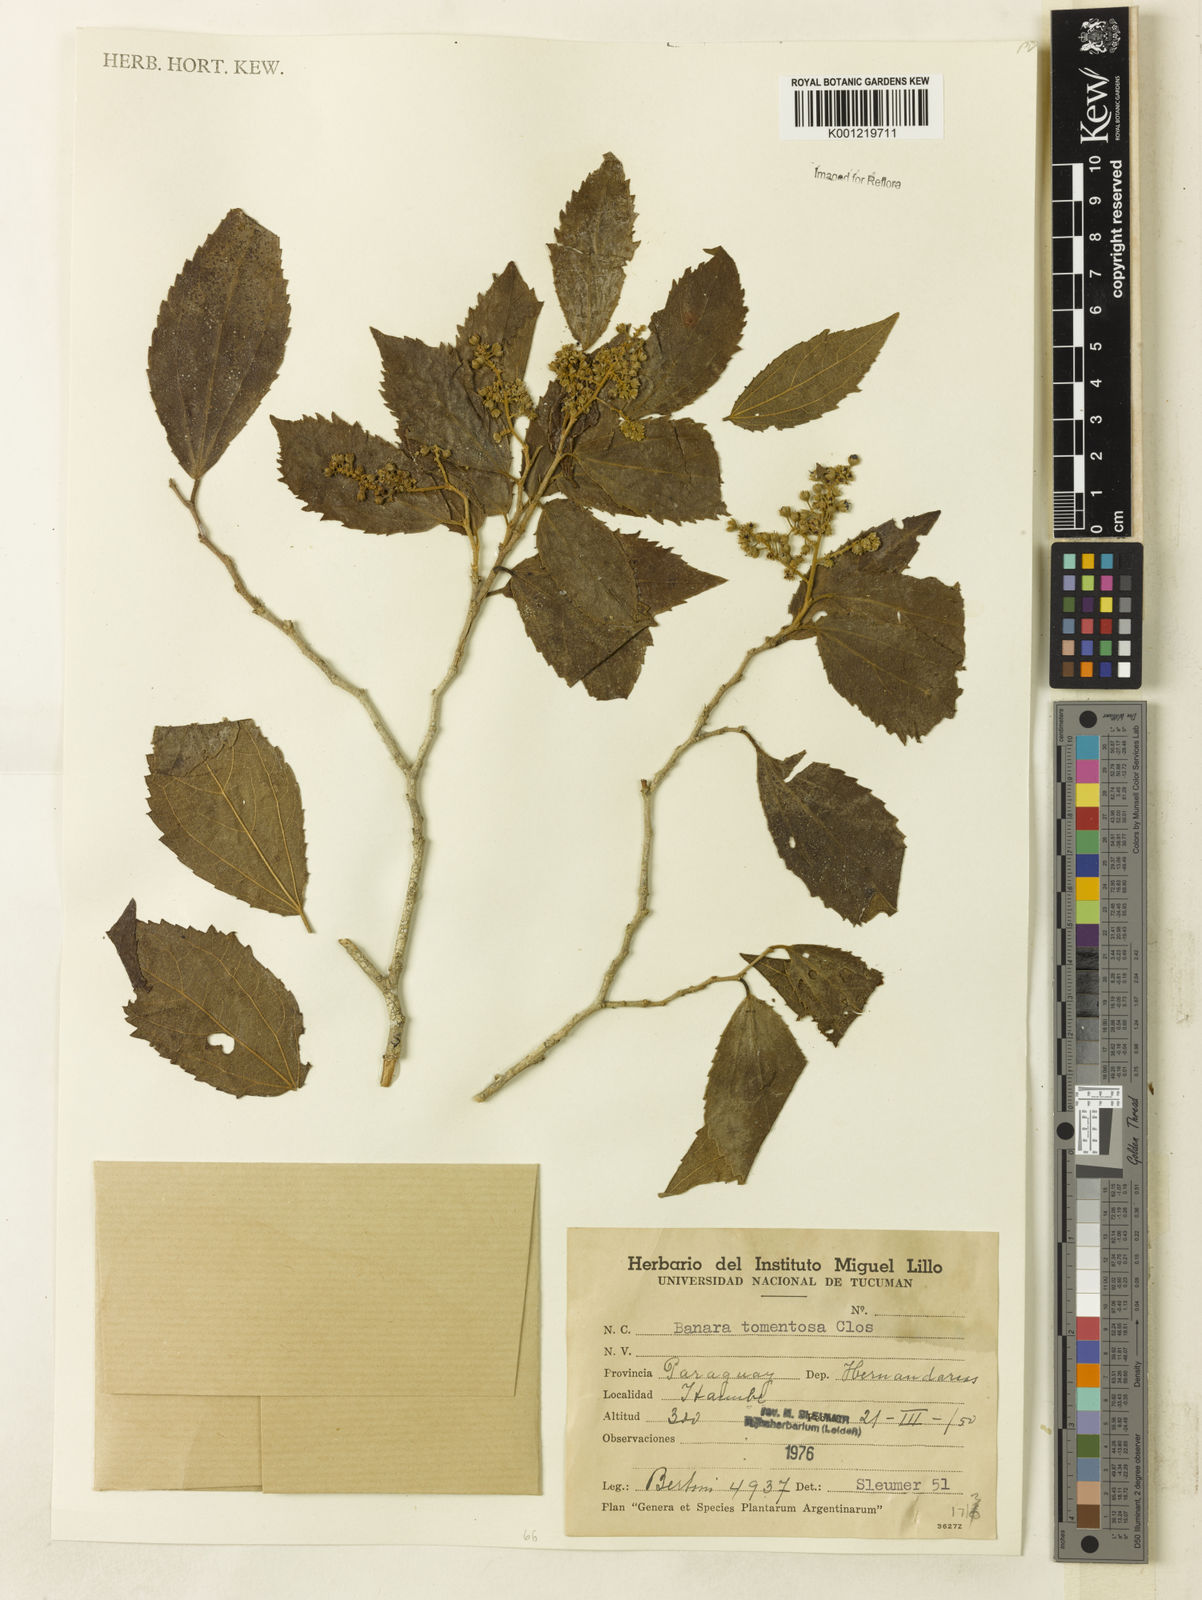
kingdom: Plantae
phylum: Tracheophyta
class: Magnoliopsida
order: Malpighiales
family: Salicaceae
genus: Banara
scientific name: Banara tomentosa
